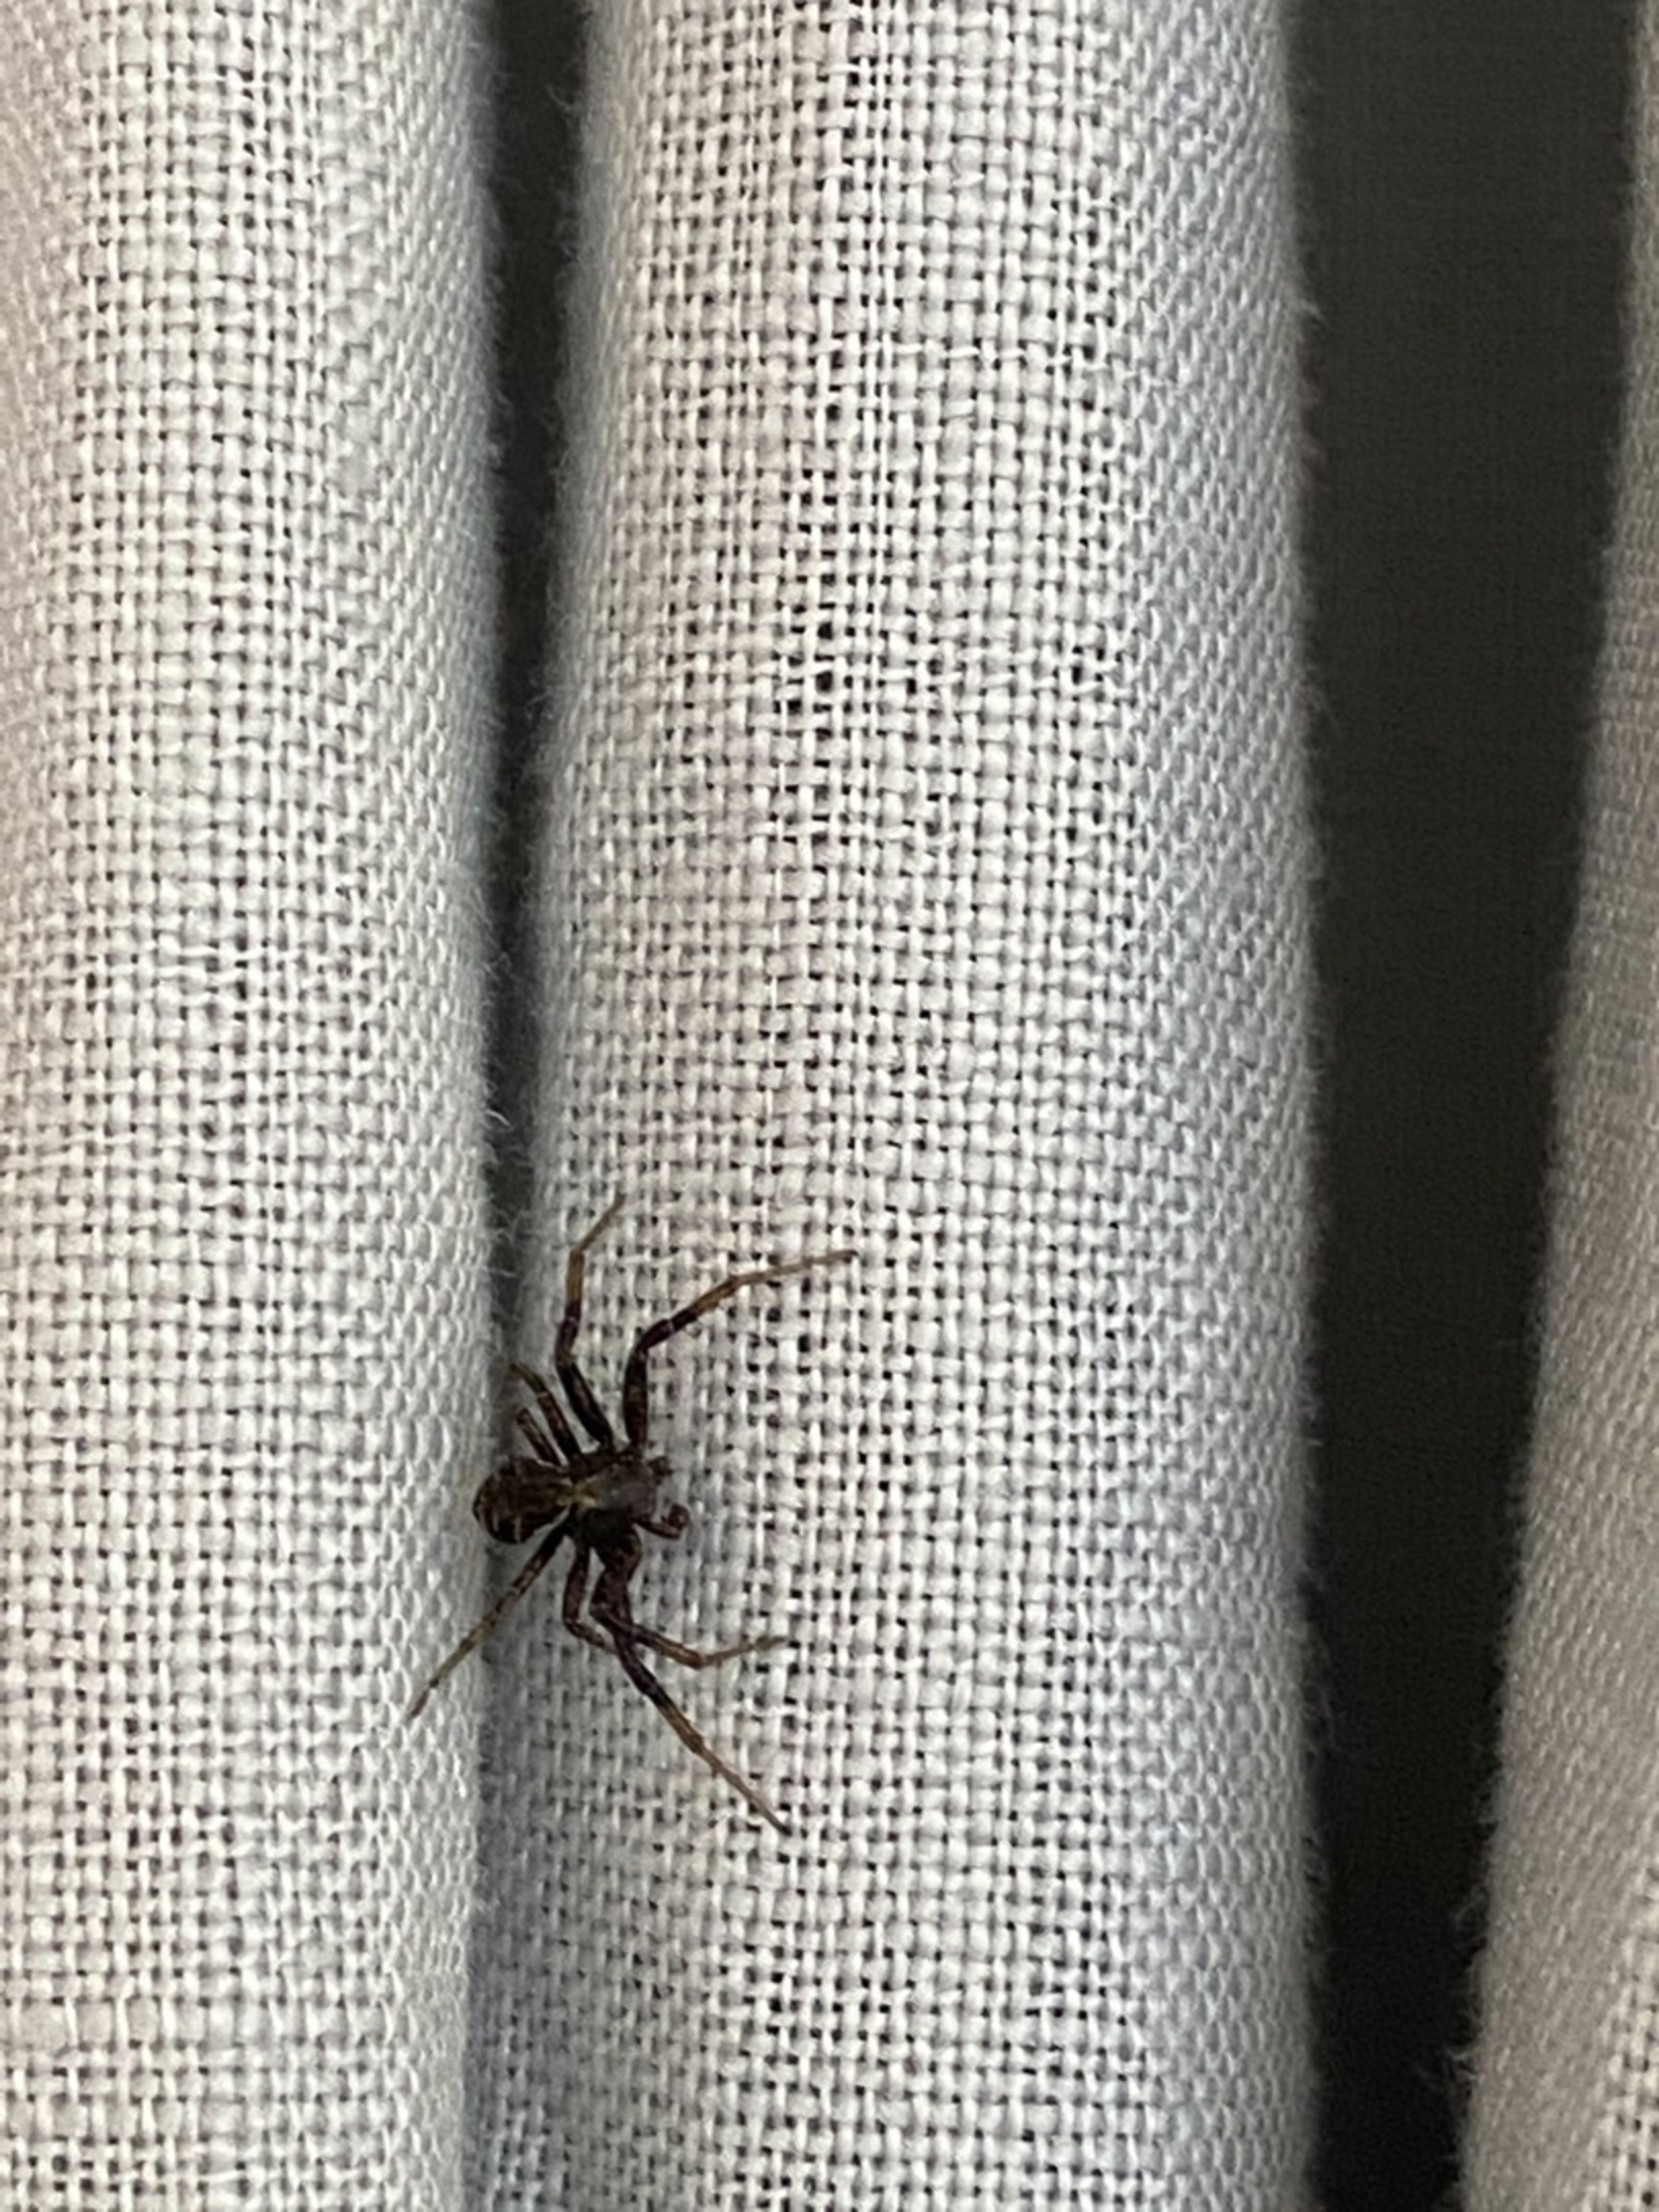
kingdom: Animalia
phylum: Arthropoda
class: Arachnida
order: Araneae
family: Thomisidae
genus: Xysticus
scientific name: Xysticus
